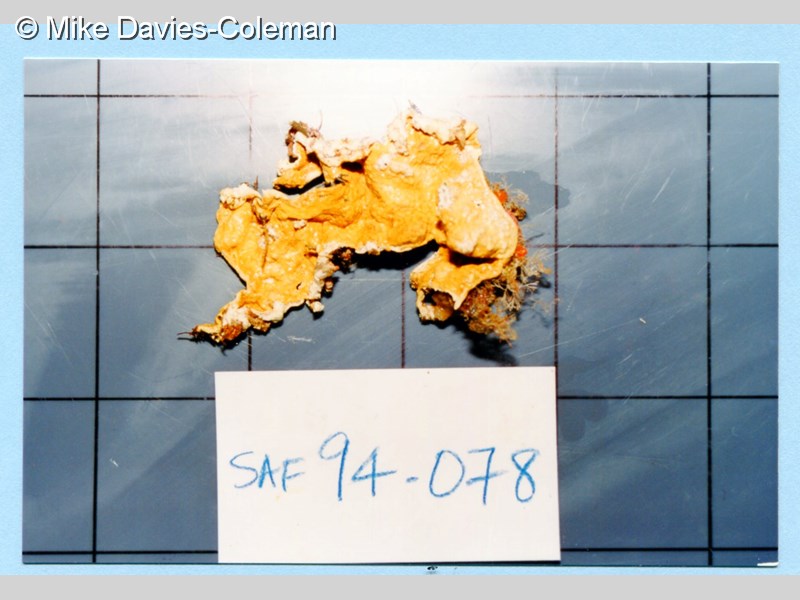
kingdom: Animalia
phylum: Chordata
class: Ascidiacea
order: Aplousobranchia
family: Didemnidae
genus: Didemnum
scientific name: Didemnum
